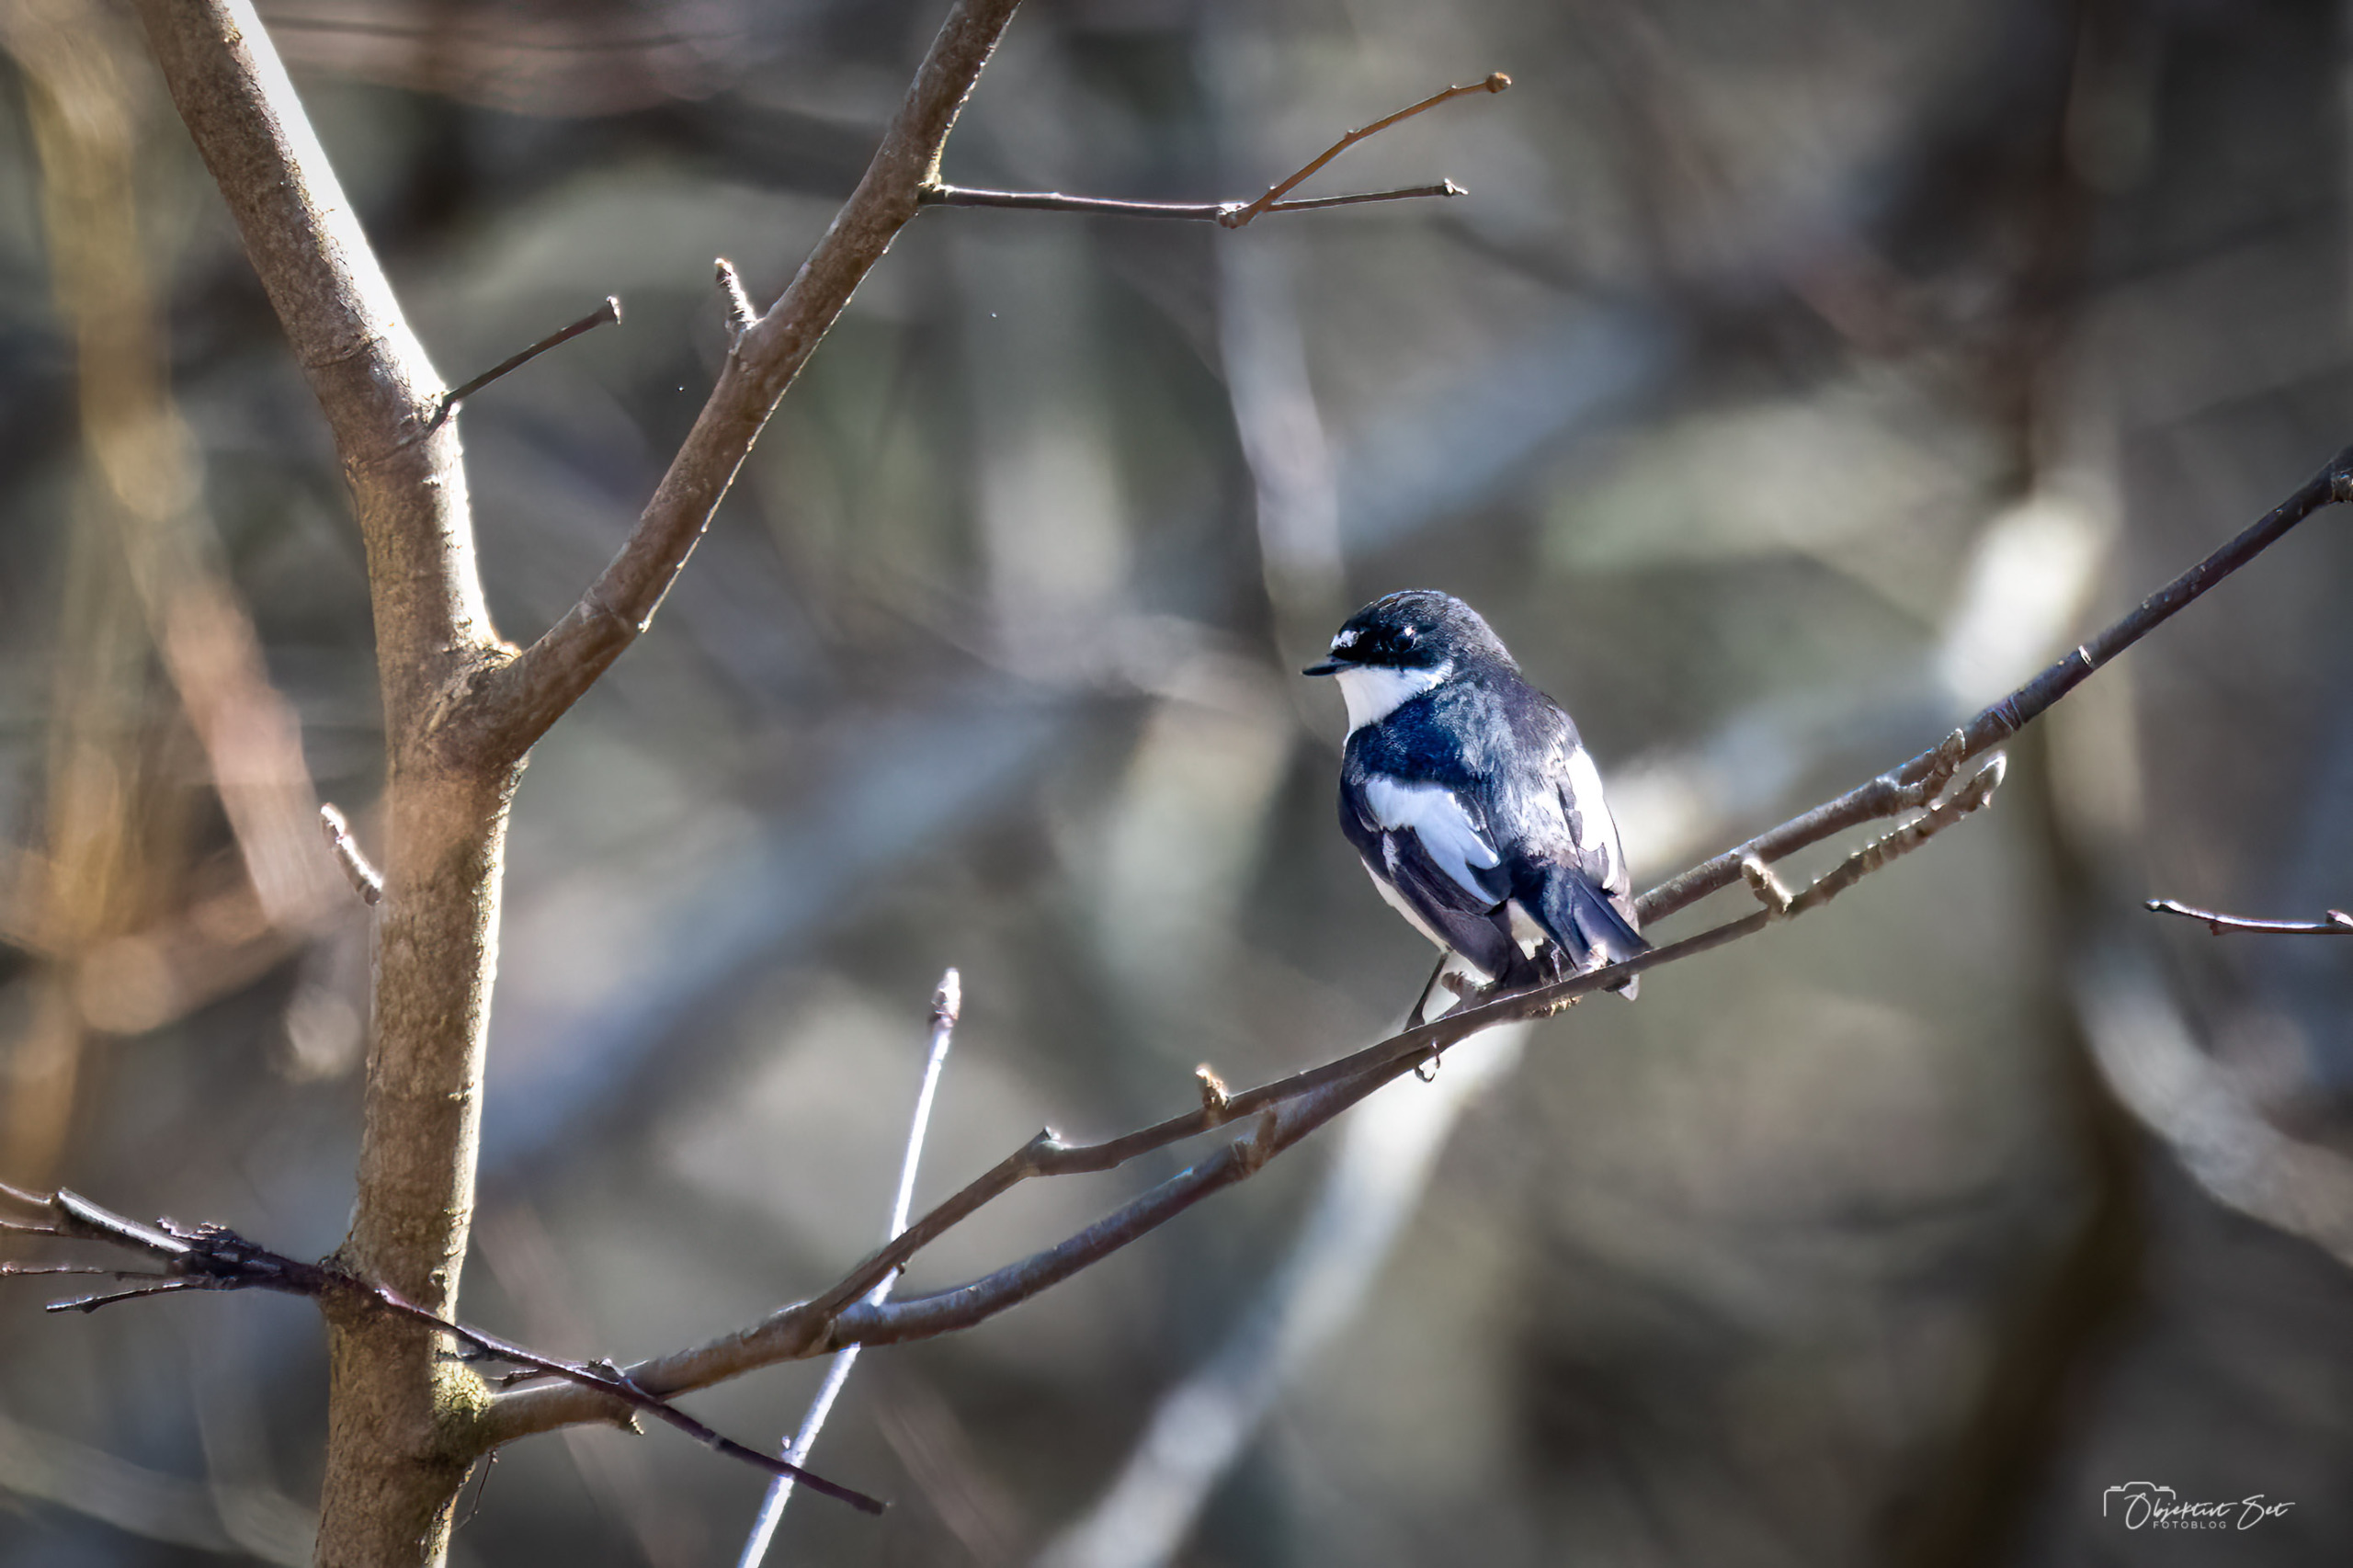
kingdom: Animalia
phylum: Chordata
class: Aves
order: Passeriformes
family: Muscicapidae
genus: Ficedula
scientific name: Ficedula hypoleuca
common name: Broget fluesnapper
